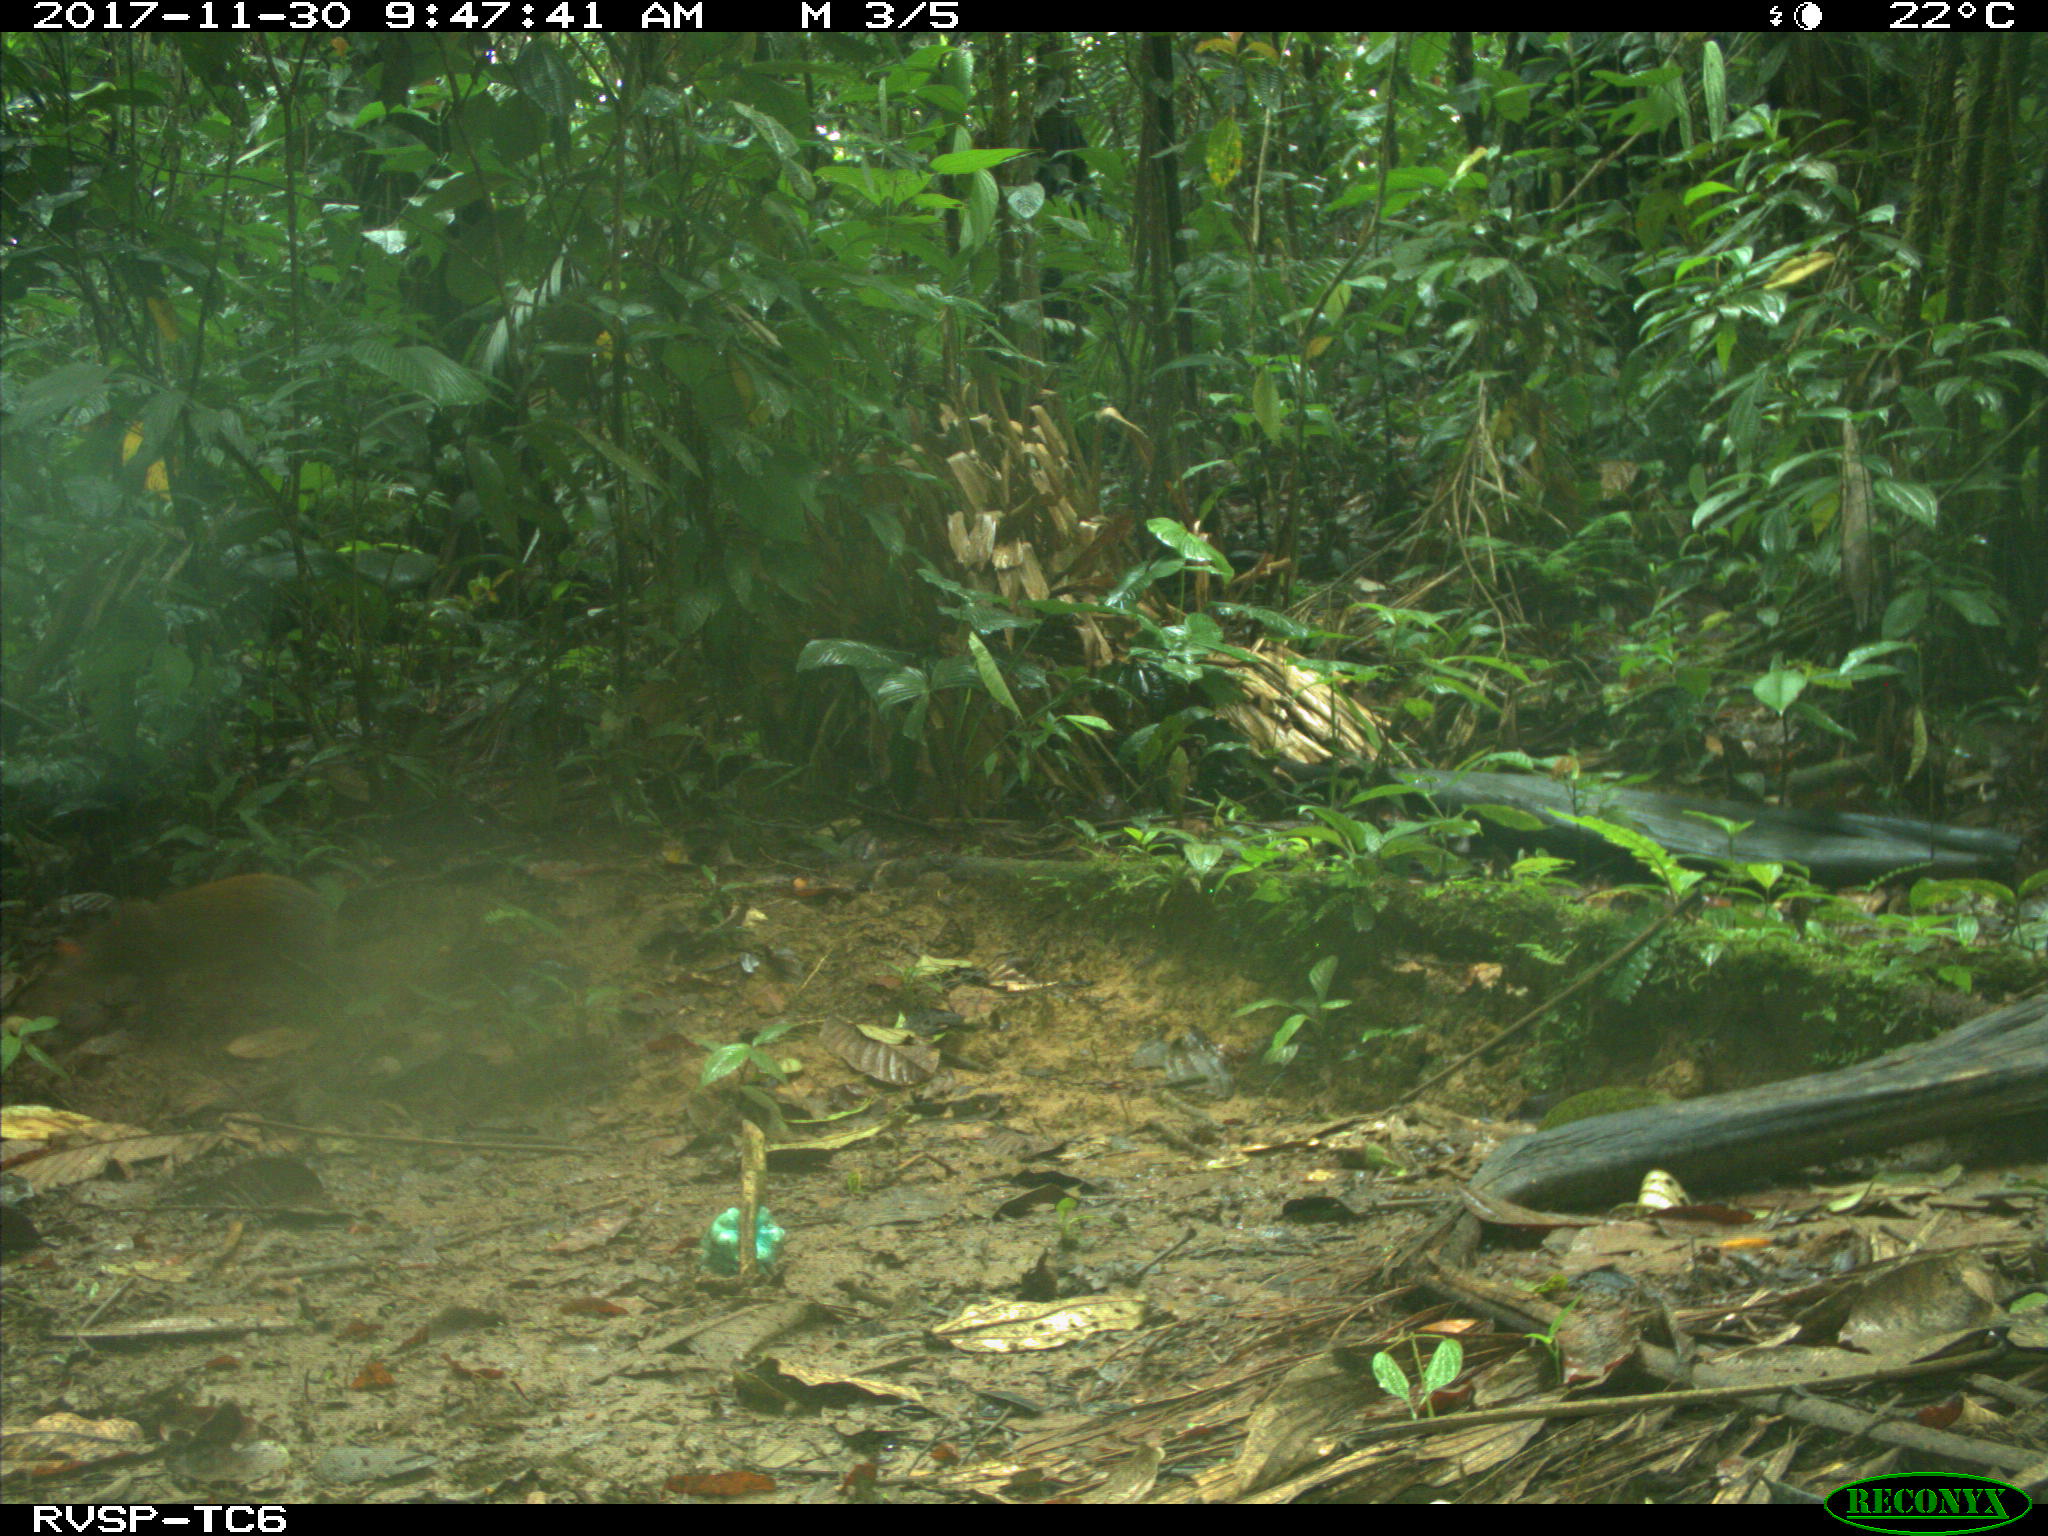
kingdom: Animalia
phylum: Chordata
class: Mammalia
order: Rodentia
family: Dasyproctidae
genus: Dasyprocta
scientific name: Dasyprocta punctata
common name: Central american agouti
